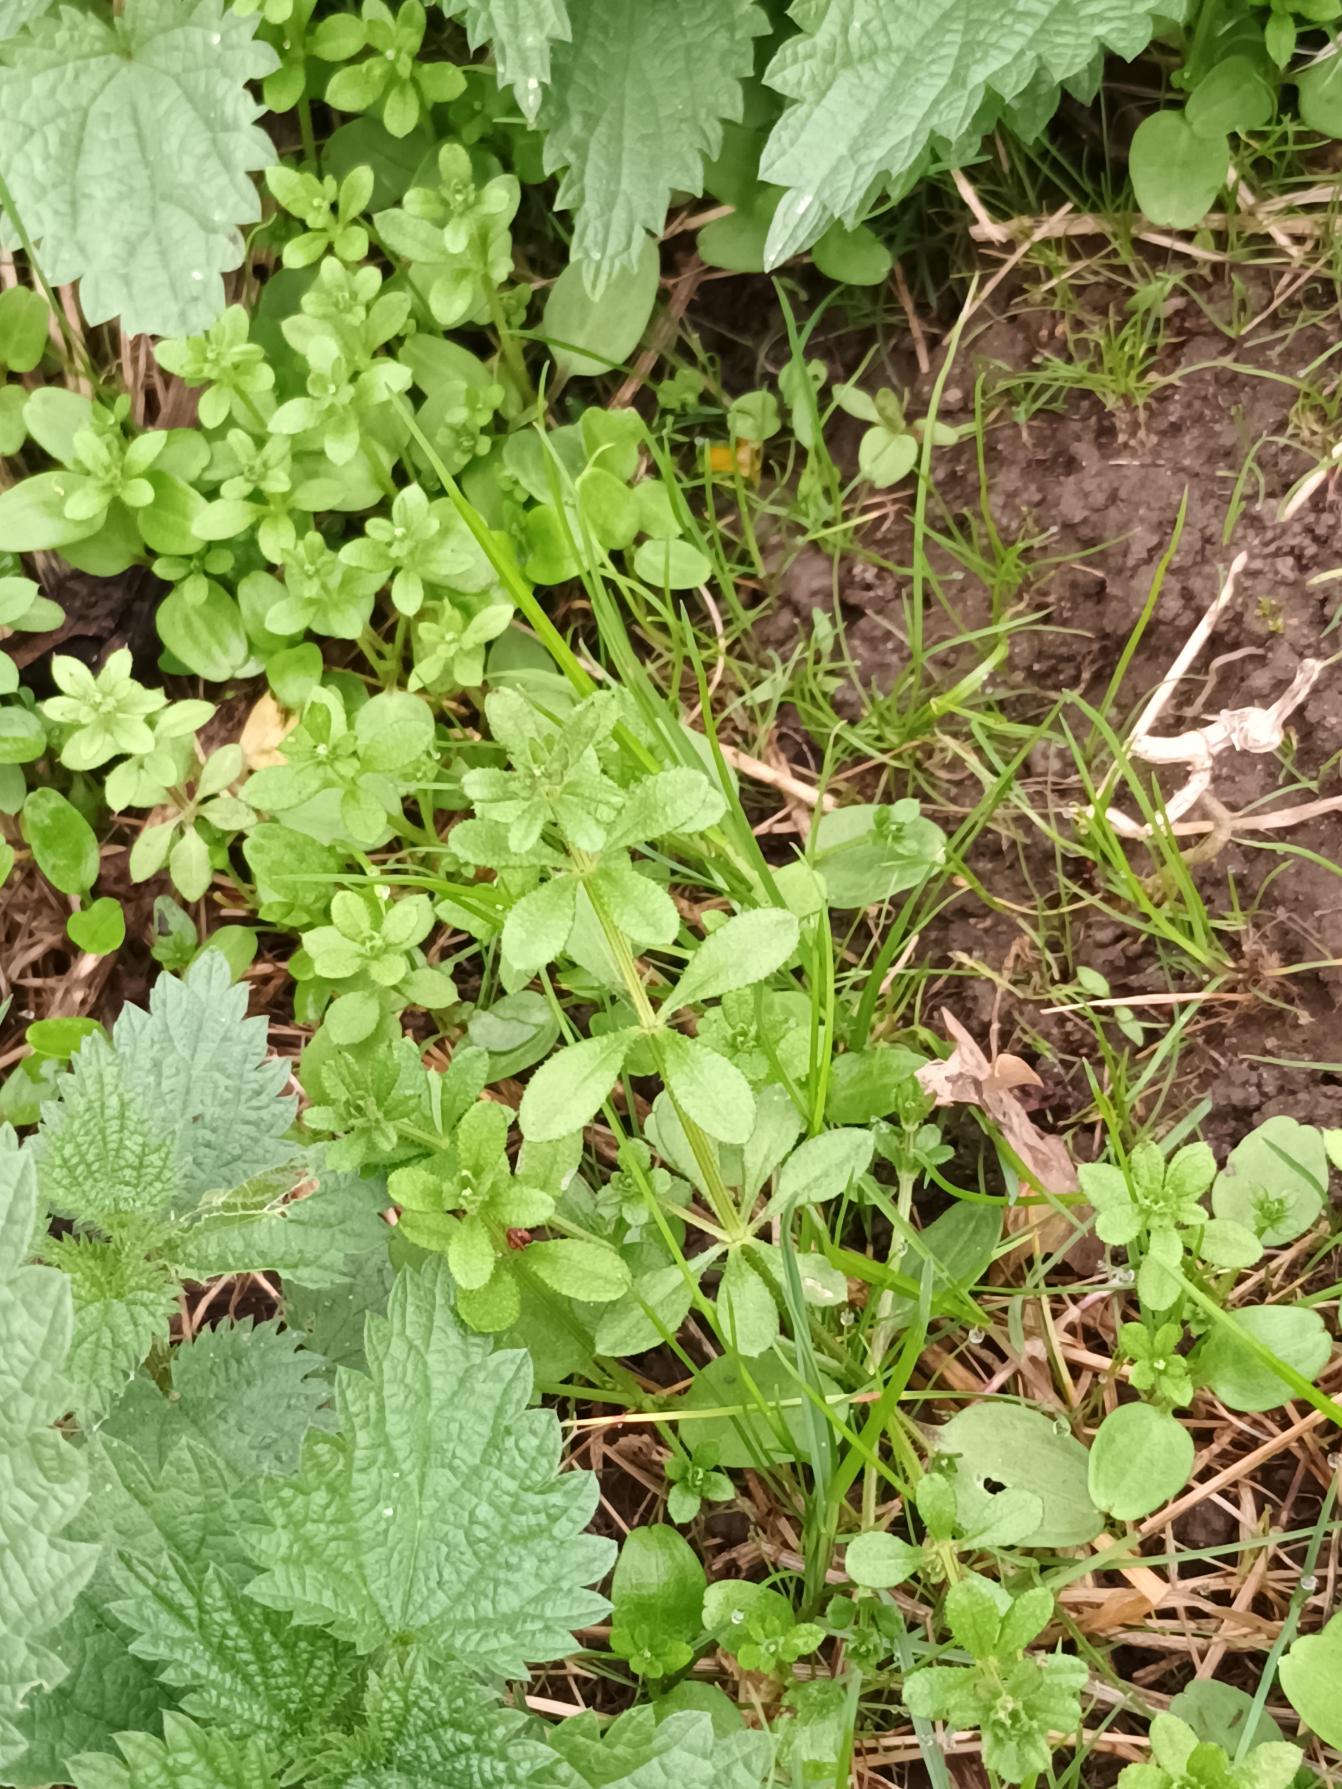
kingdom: Plantae
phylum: Tracheophyta
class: Magnoliopsida
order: Gentianales
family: Rubiaceae
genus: Galium
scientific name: Galium aparine
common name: Burre-snerre
